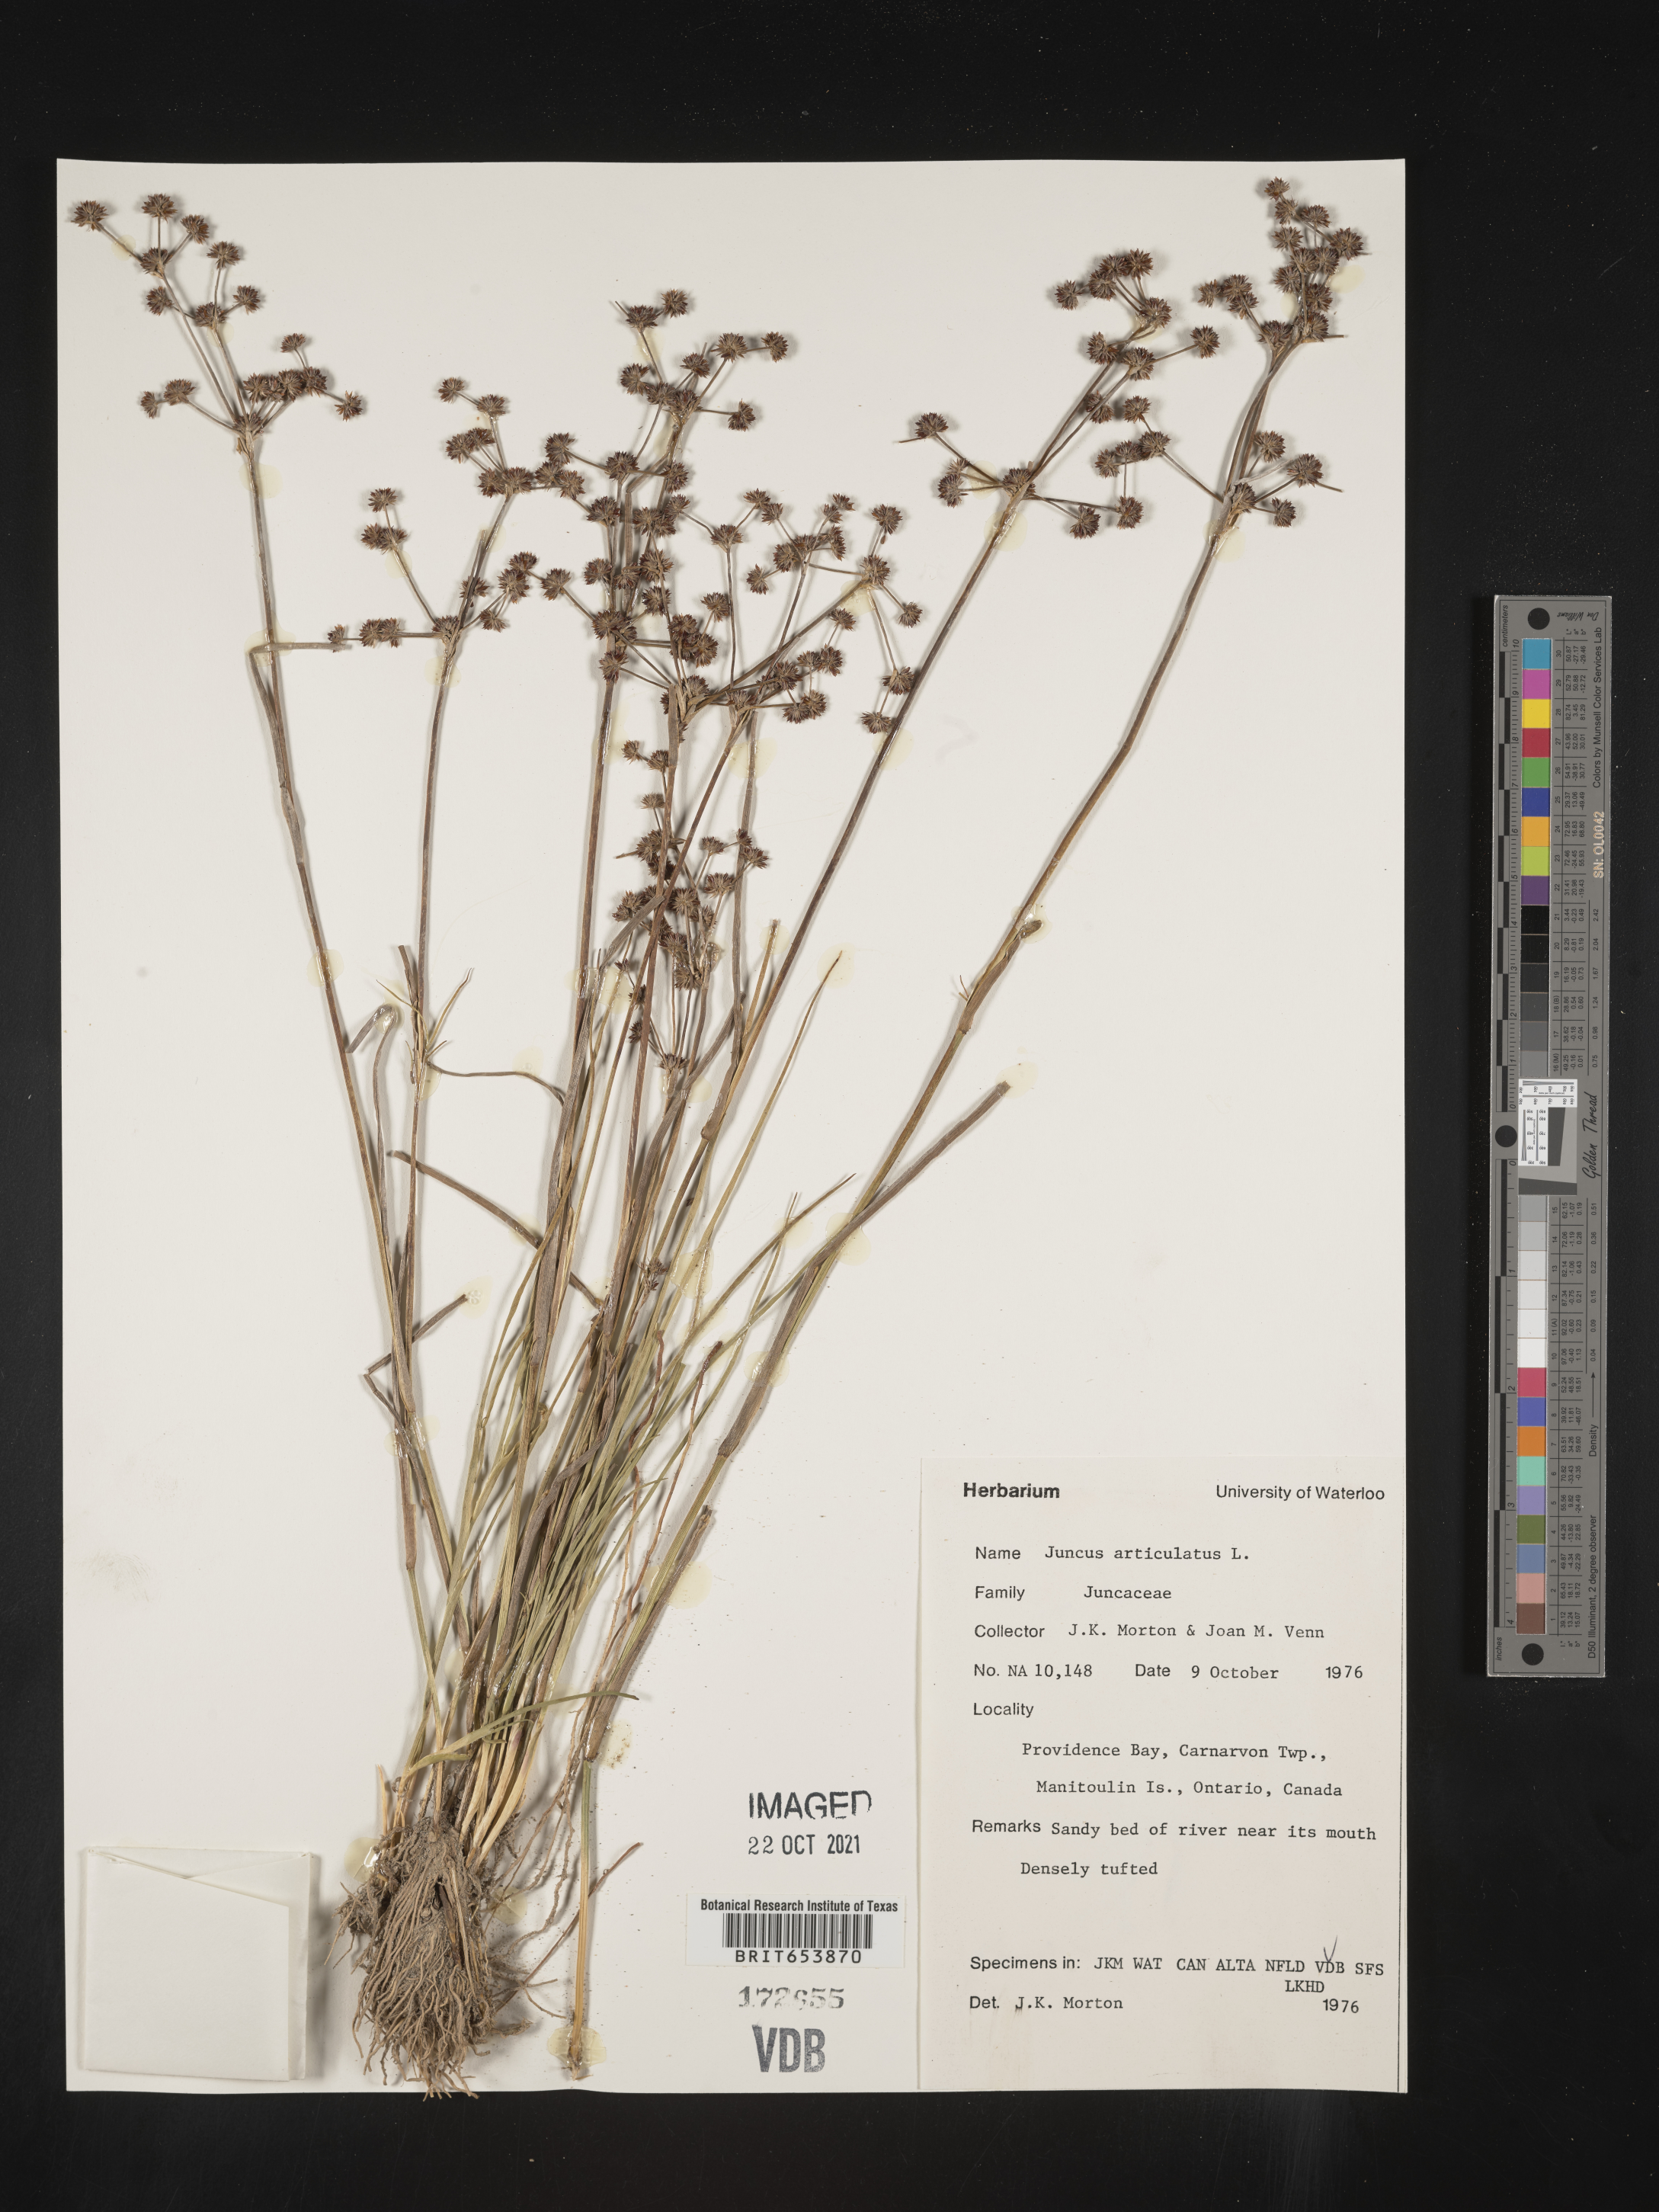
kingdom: Plantae
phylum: Tracheophyta
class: Liliopsida
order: Poales
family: Juncaceae
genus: Juncus
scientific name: Juncus articulatus
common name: Jointed rush
